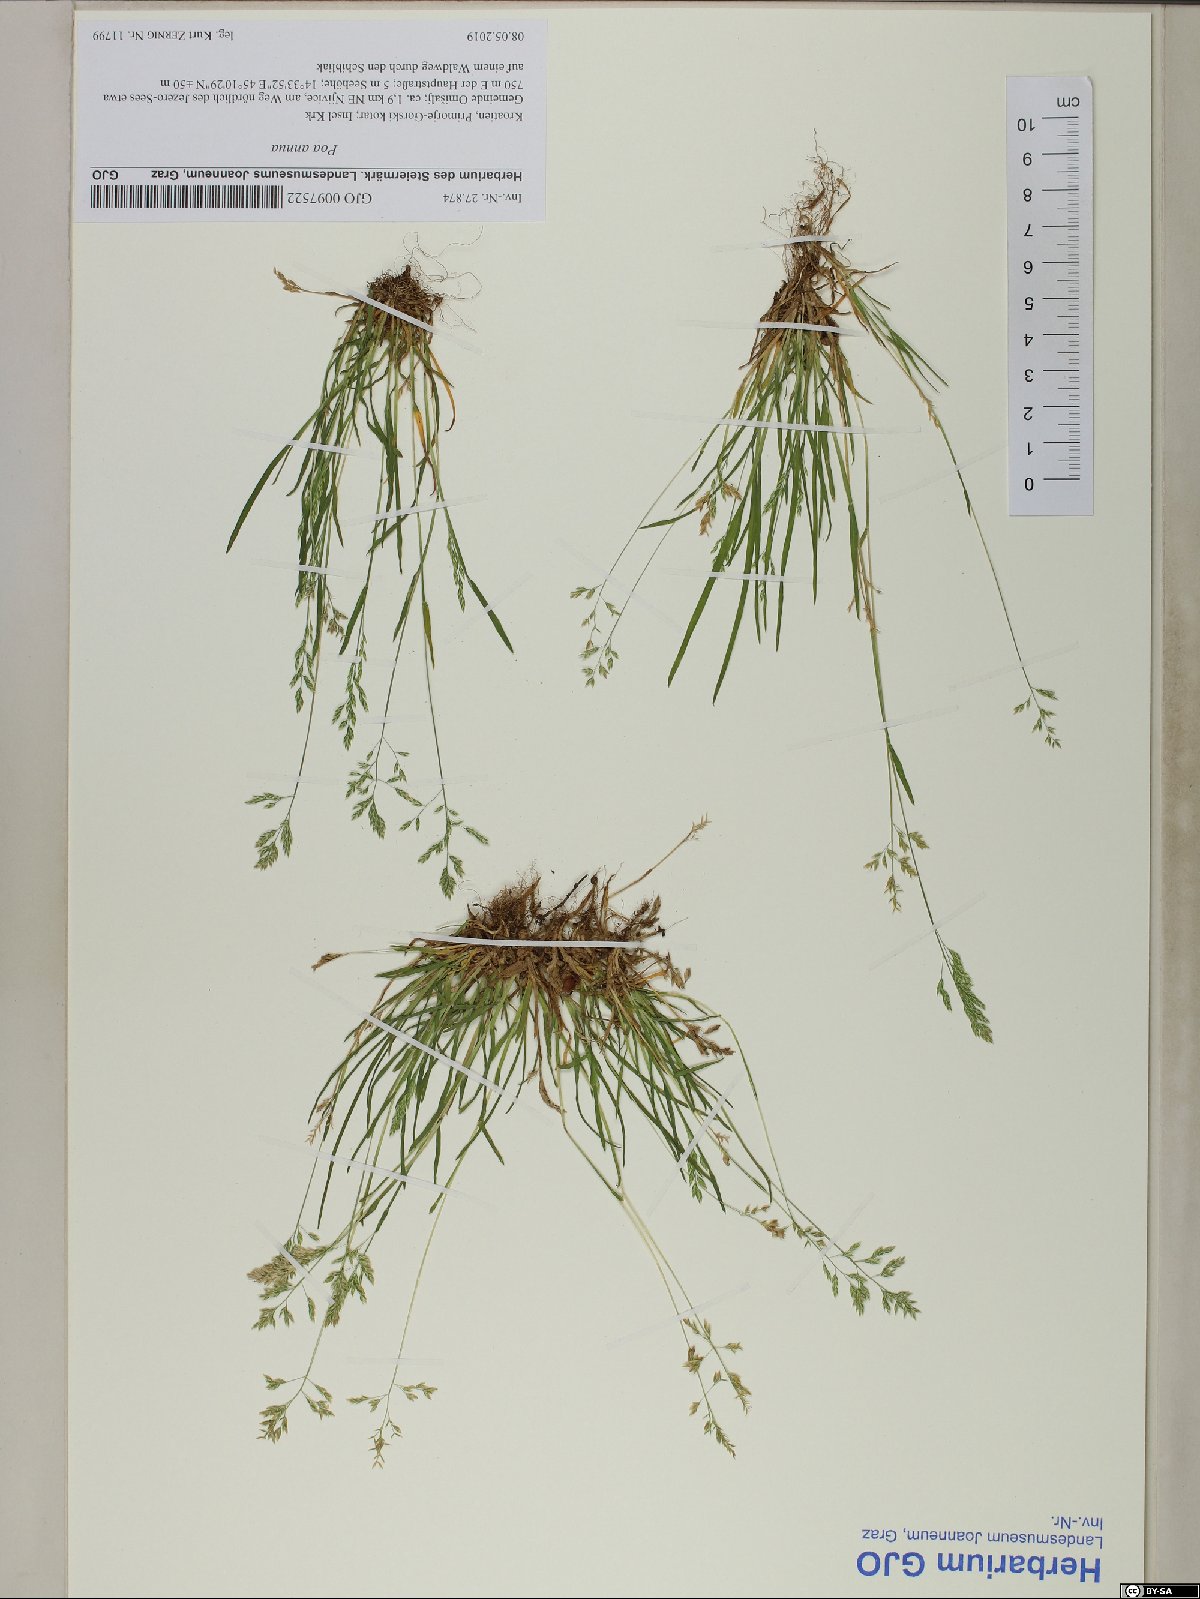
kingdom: Plantae
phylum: Tracheophyta
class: Liliopsida
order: Poales
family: Poaceae
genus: Poa
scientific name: Poa annua
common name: Annual bluegrass
